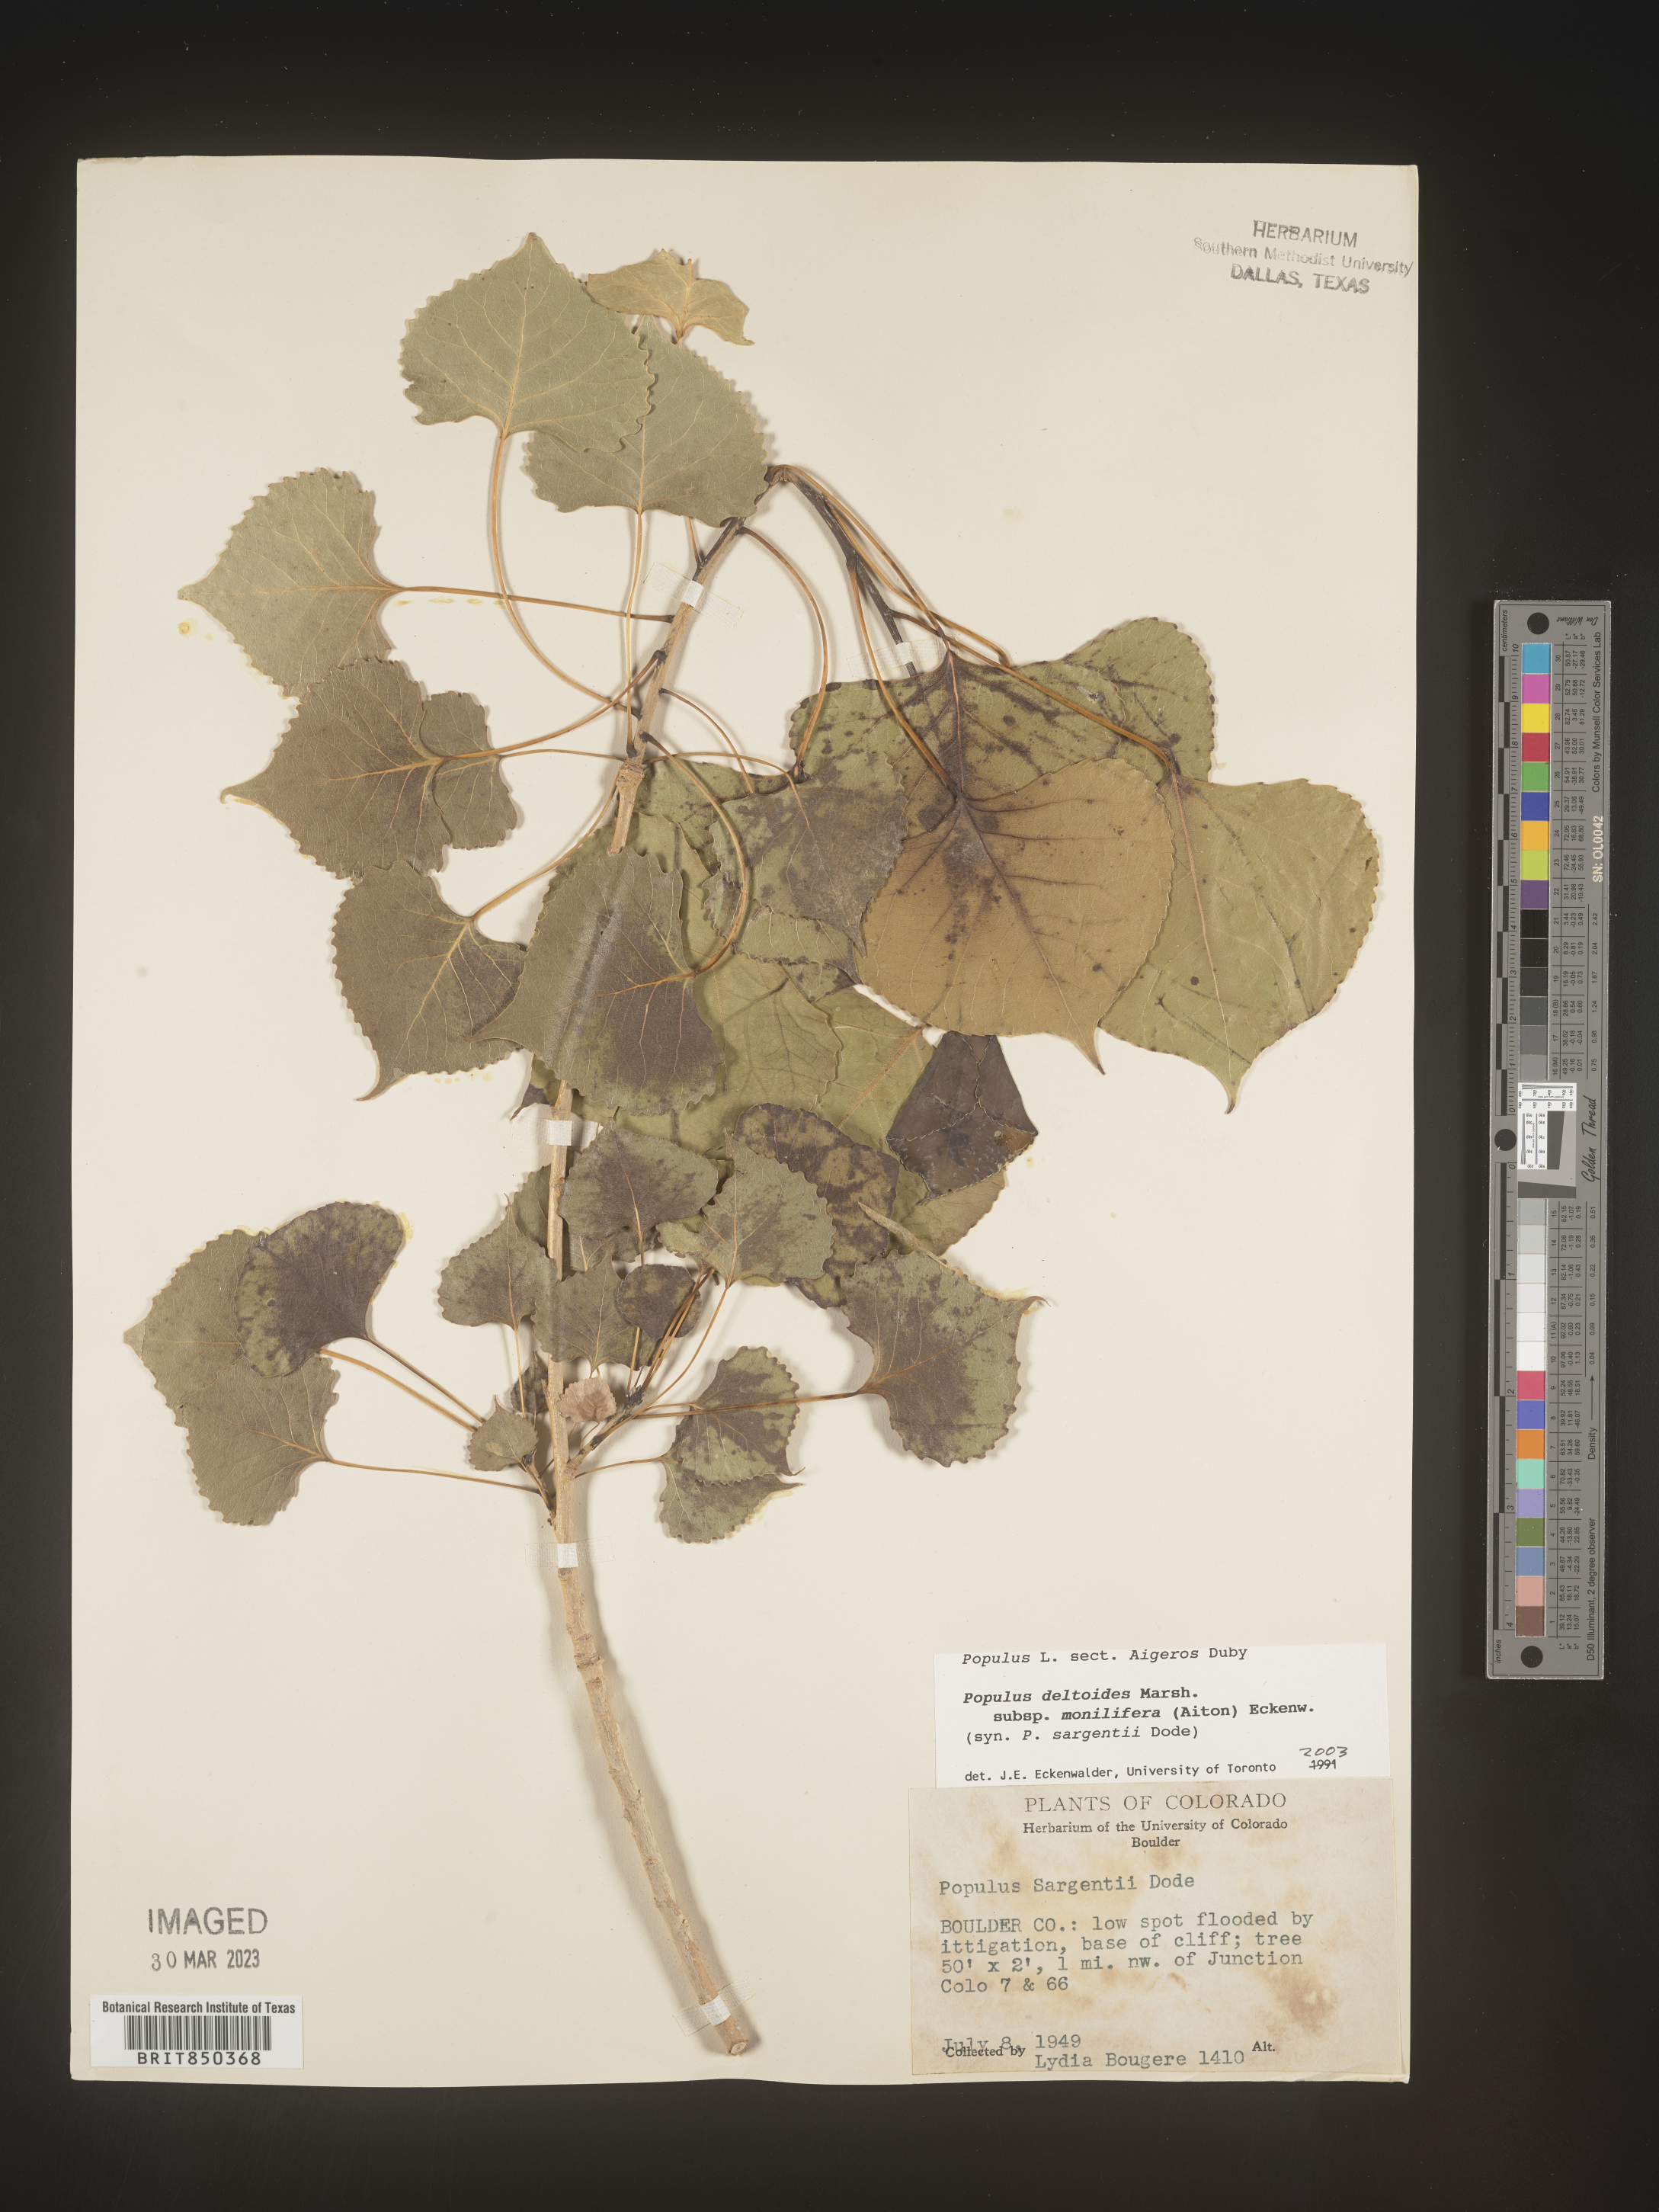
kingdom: Plantae
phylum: Tracheophyta
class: Magnoliopsida
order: Malpighiales
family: Salicaceae
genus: Populus
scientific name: Populus deltoides
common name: Eastern cottonwood
